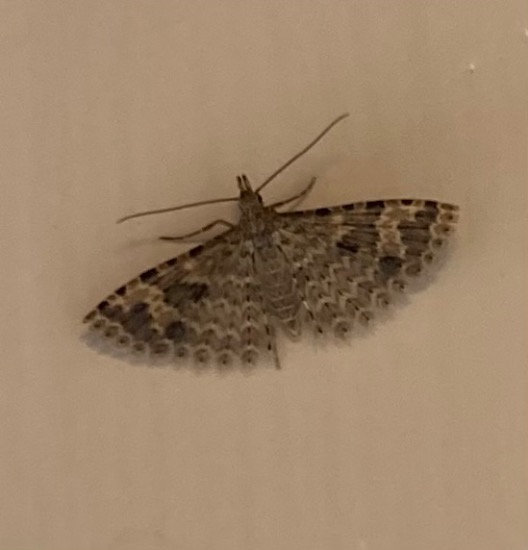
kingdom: Animalia
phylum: Arthropoda
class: Insecta
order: Lepidoptera
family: Alucitidae
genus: Alucita
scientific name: Alucita hexadactyla
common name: Kaprifoliefjermøl
